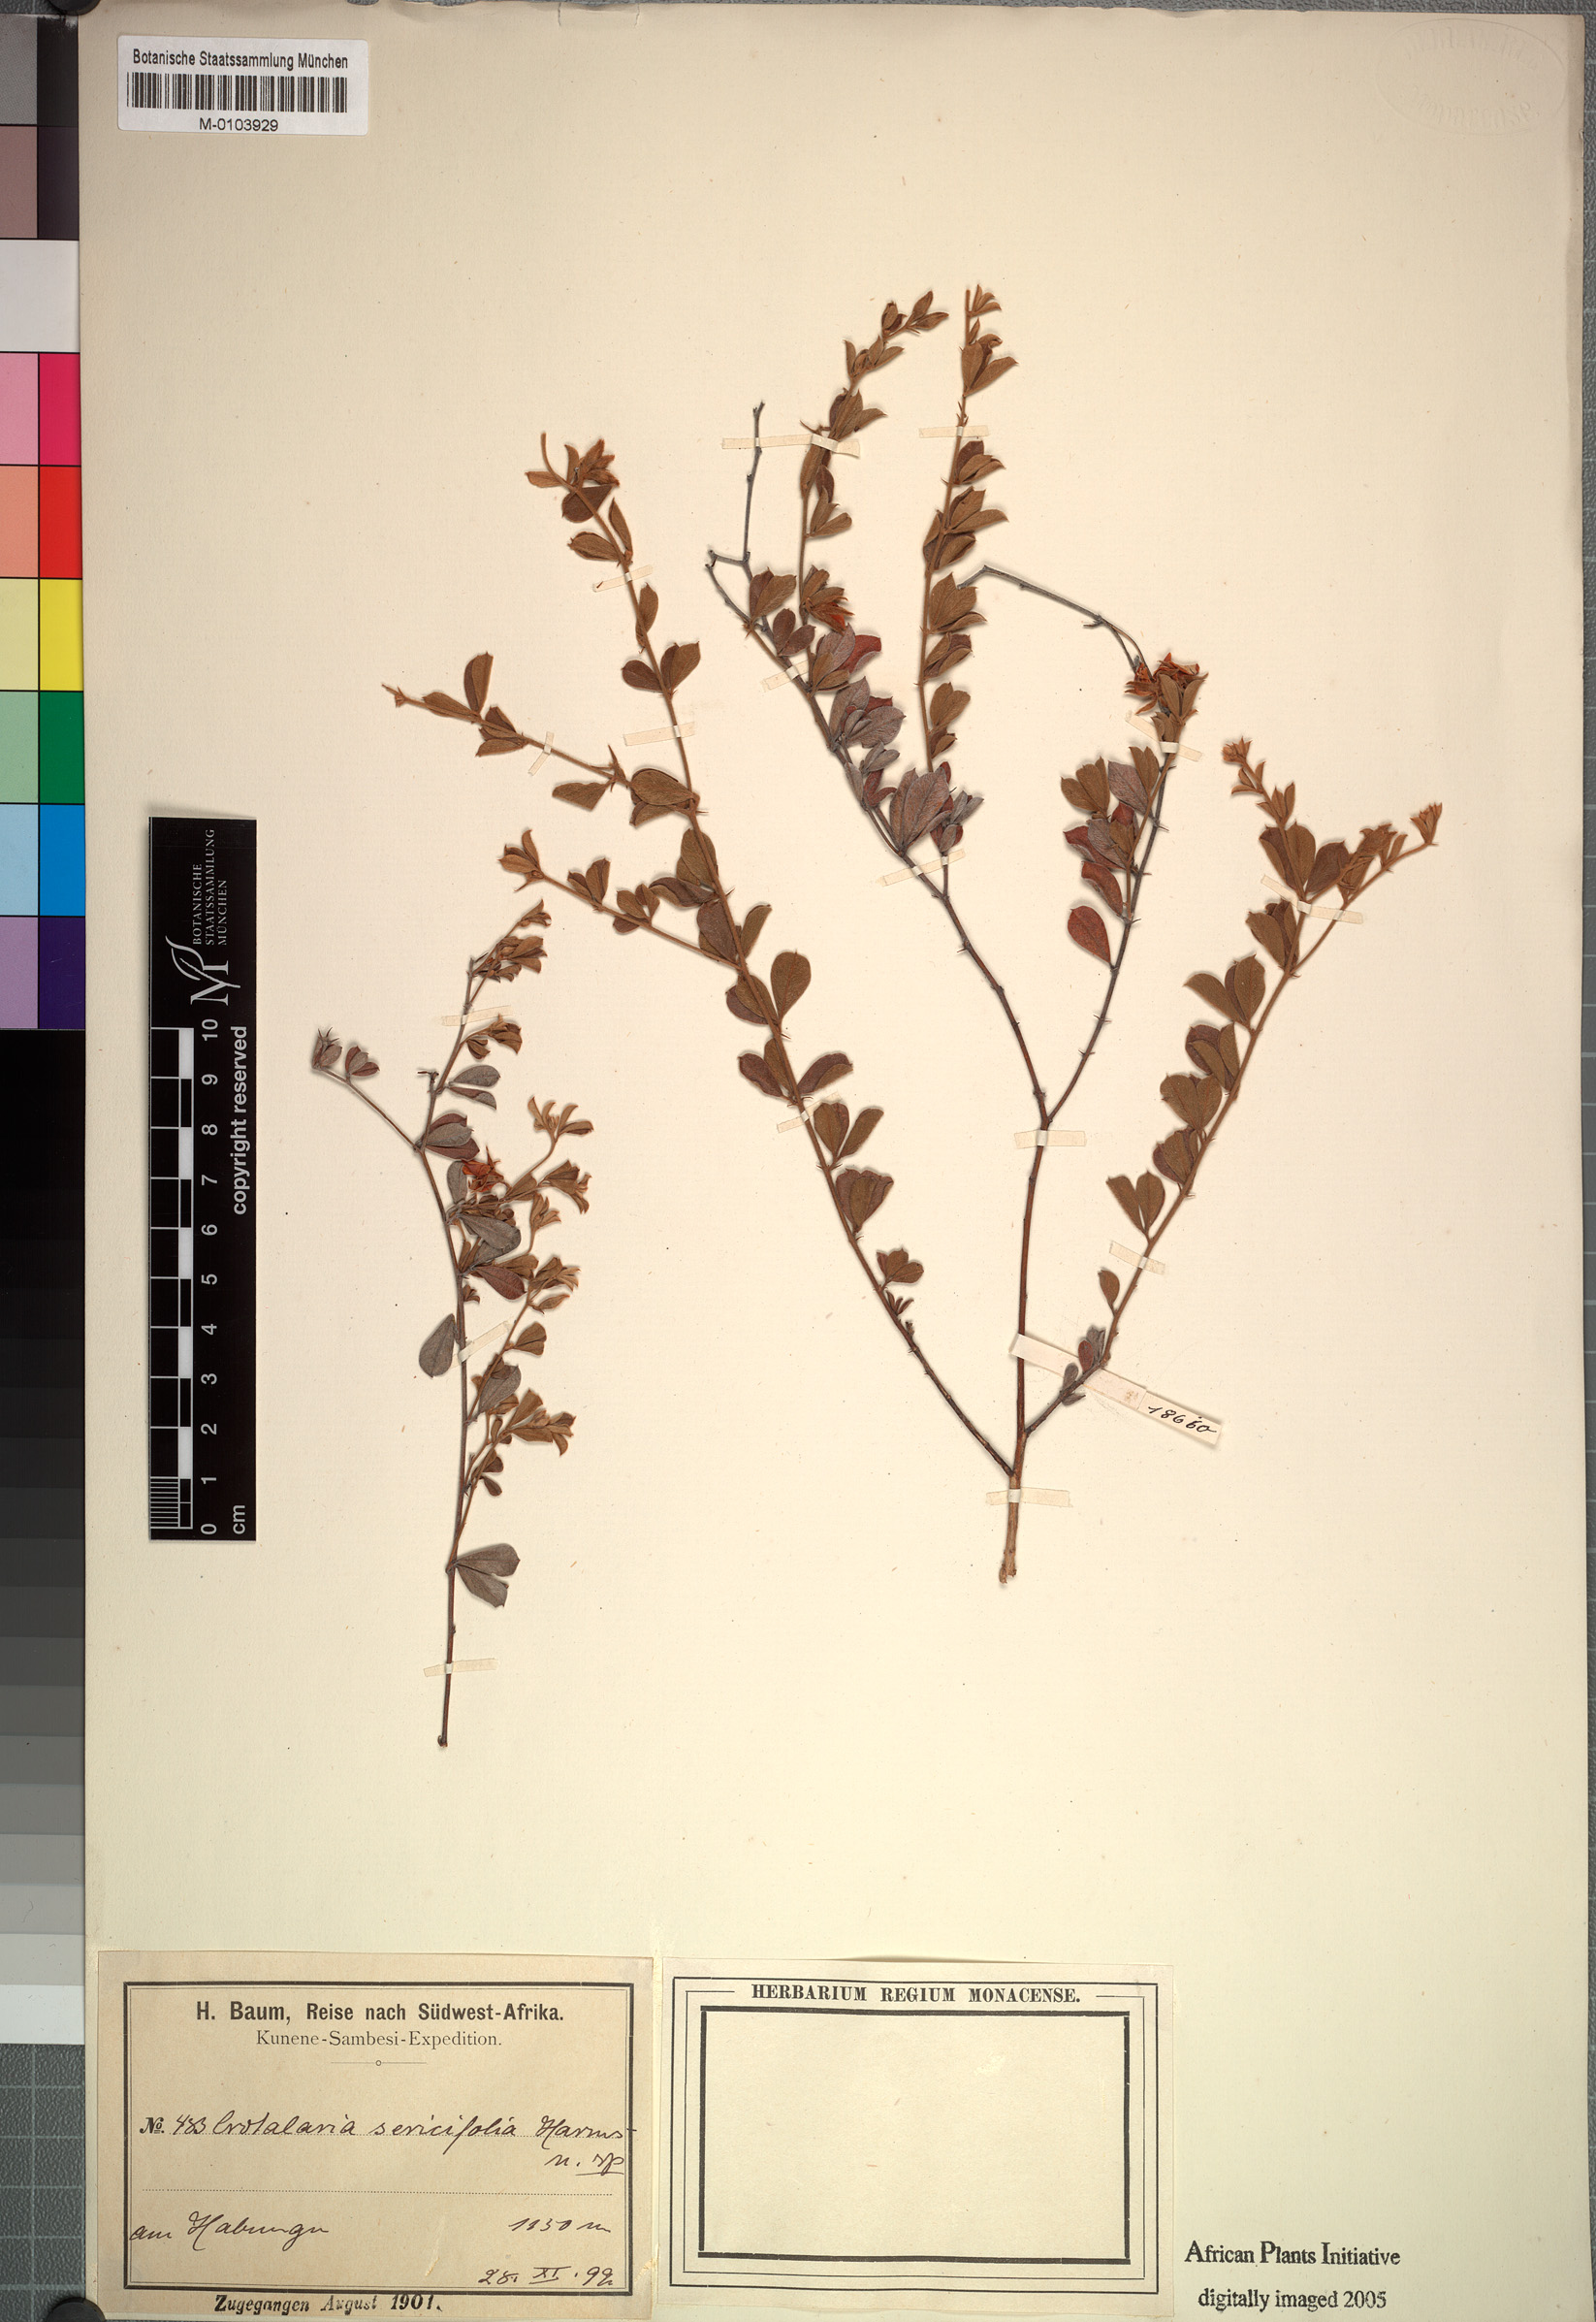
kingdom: Plantae
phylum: Tracheophyta
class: Magnoliopsida
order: Fabales
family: Fabaceae
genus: Crotalaria
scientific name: Crotalaria sericifolia
